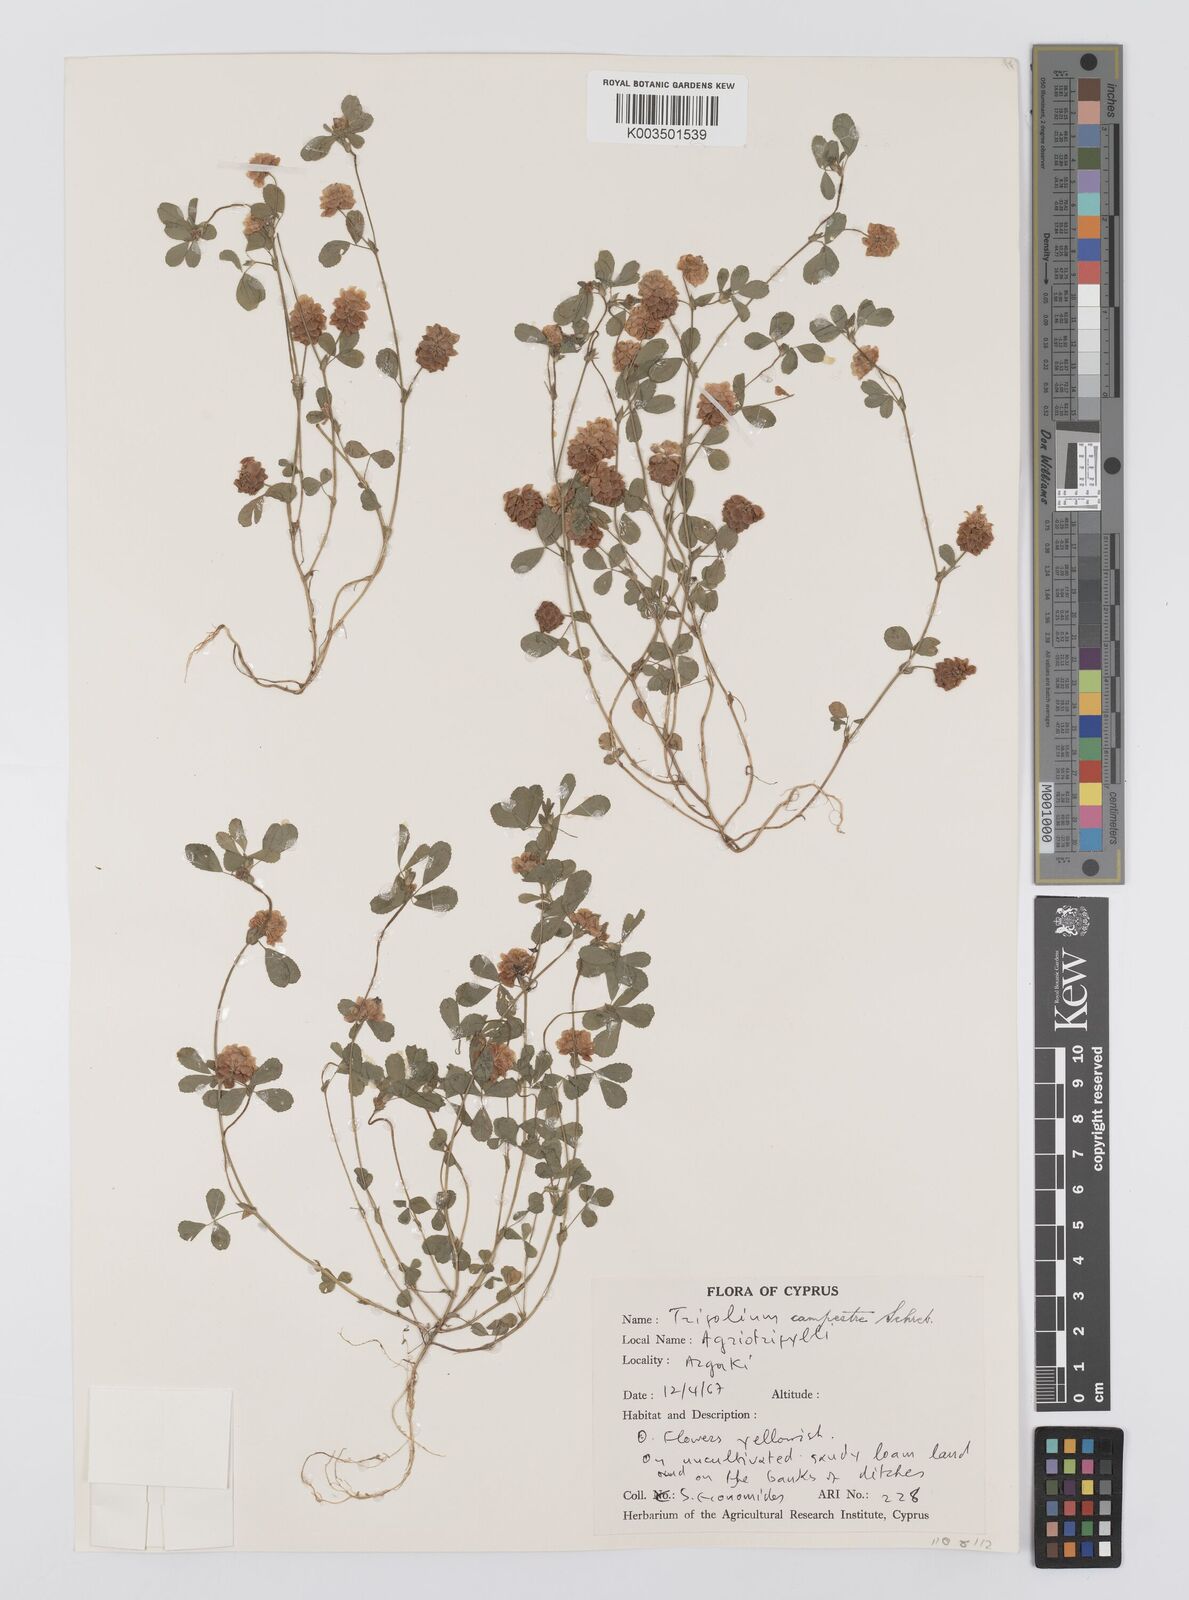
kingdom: Plantae
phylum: Tracheophyta
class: Magnoliopsida
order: Fabales
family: Fabaceae
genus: Trifolium
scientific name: Trifolium campestre
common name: Field clover
